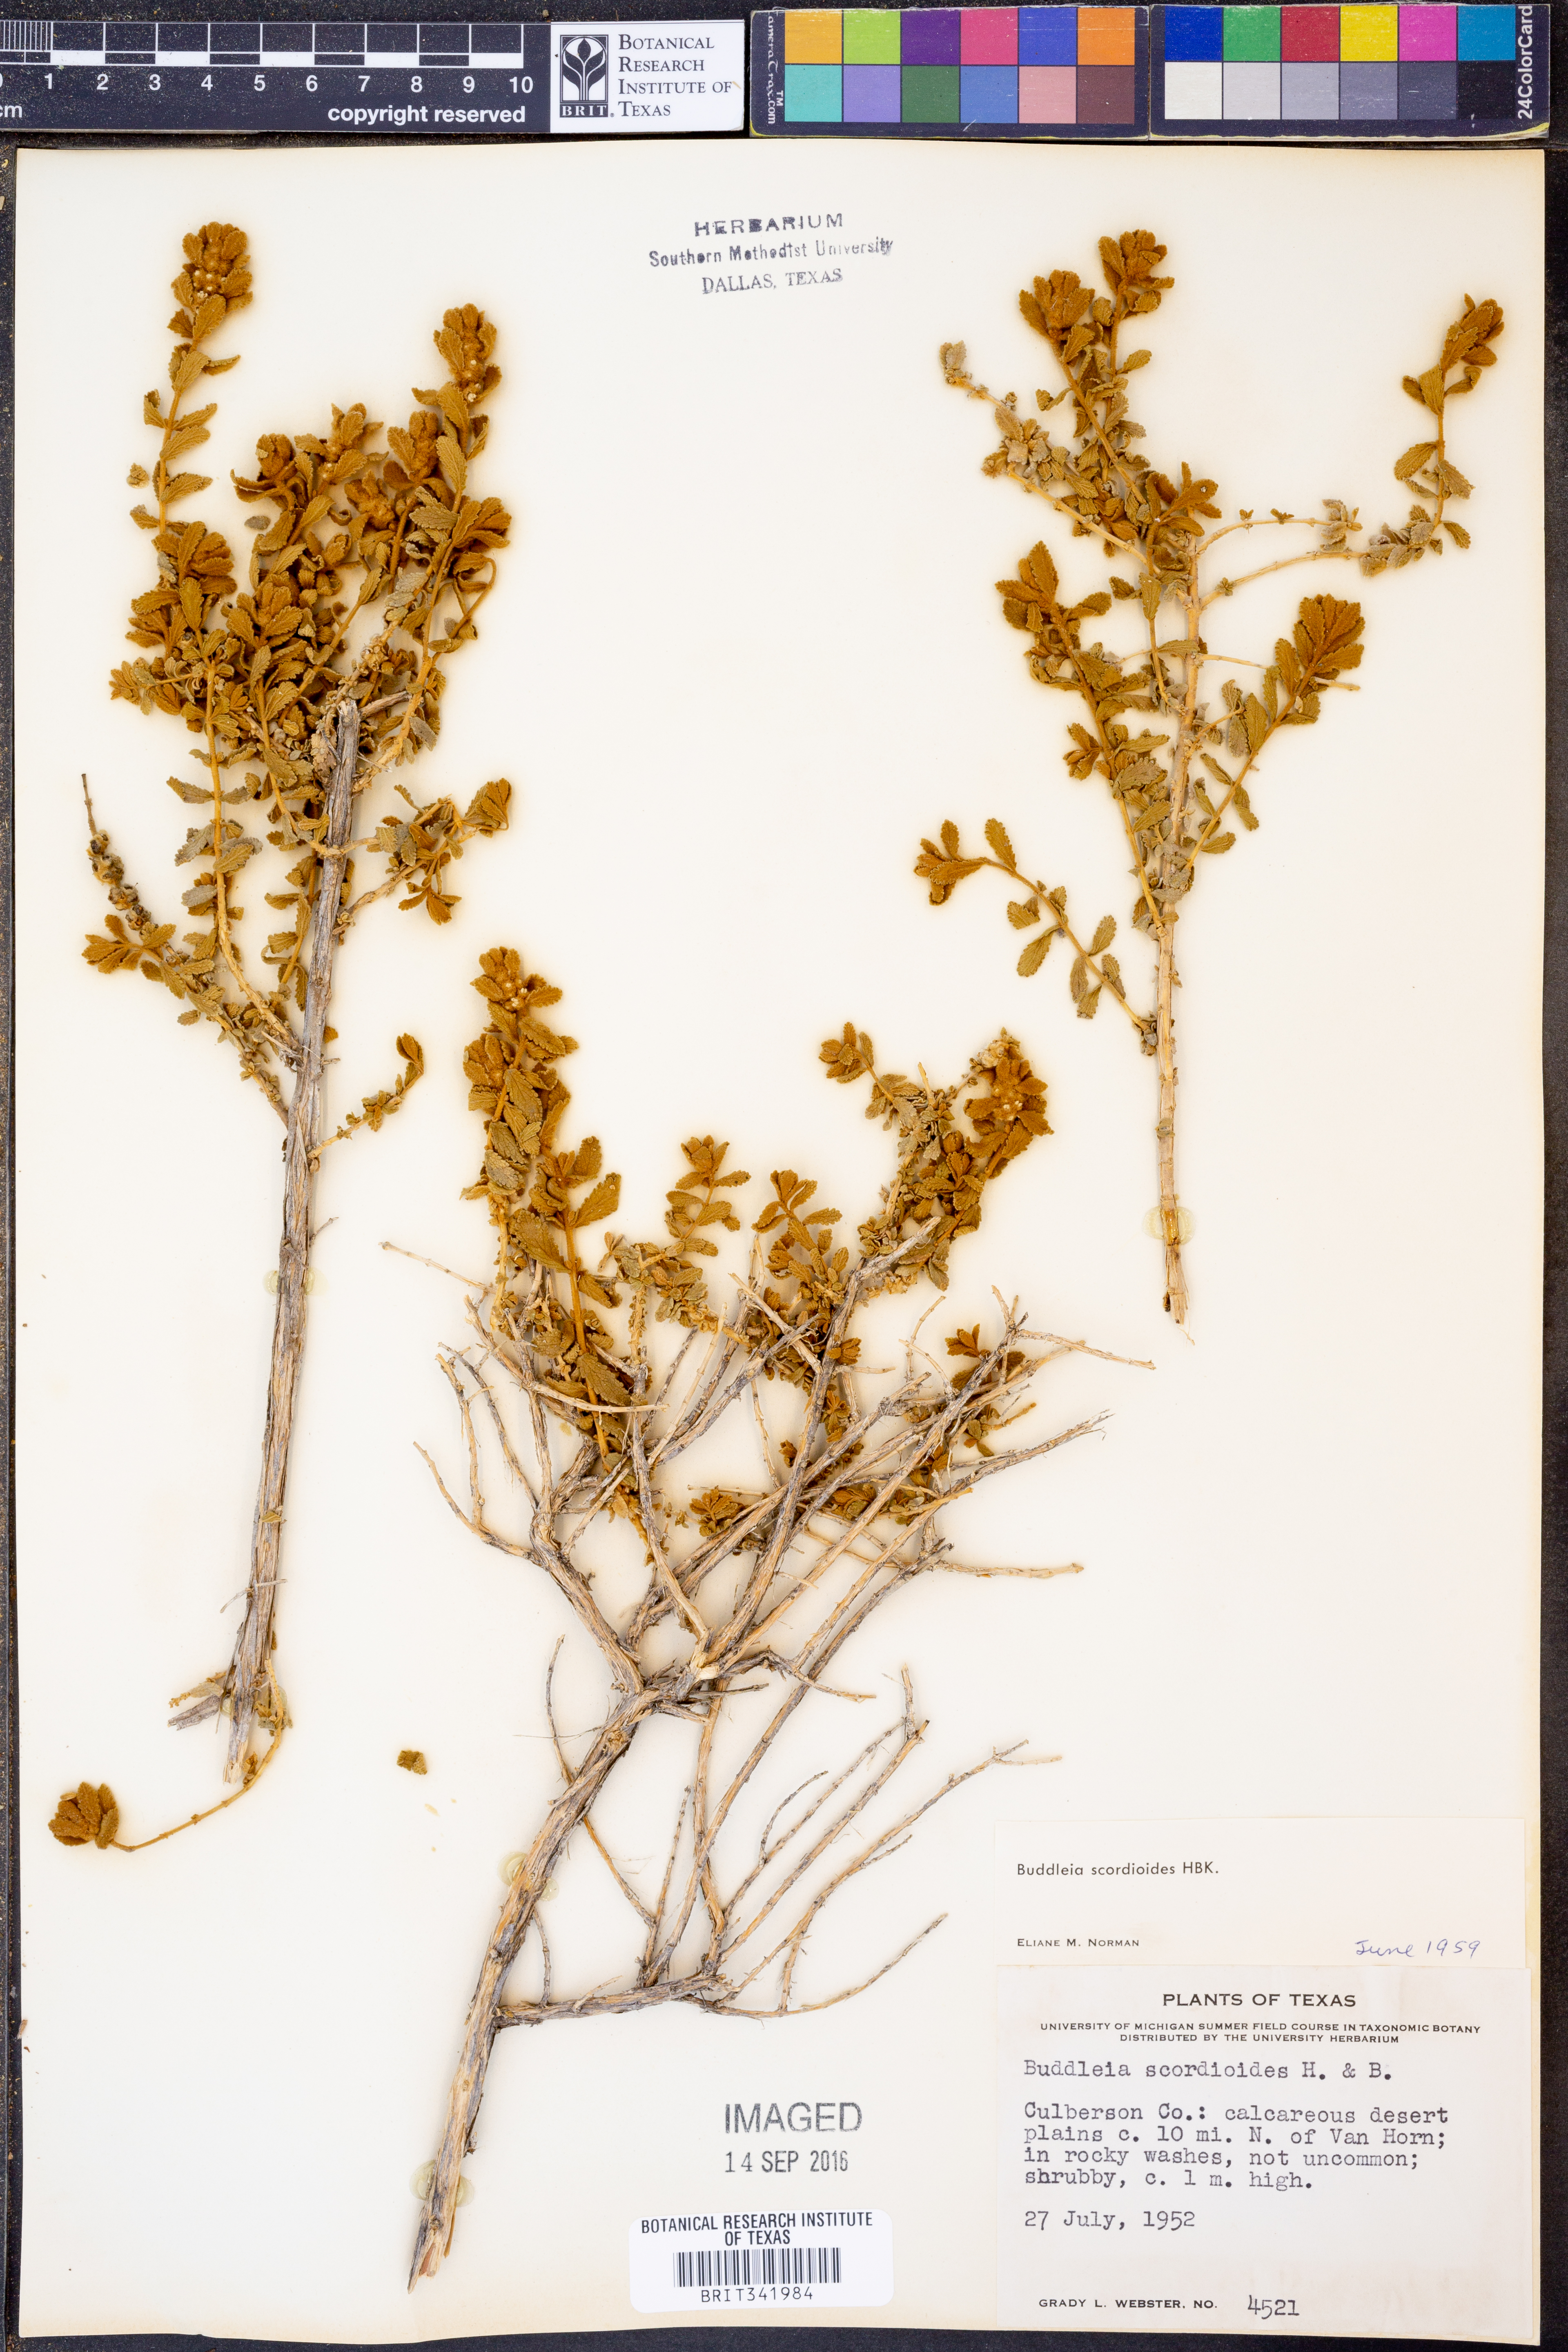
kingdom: Plantae
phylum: Tracheophyta
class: Magnoliopsida
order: Lamiales
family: Scrophulariaceae
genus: Buddleja
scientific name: Buddleja scordioides
